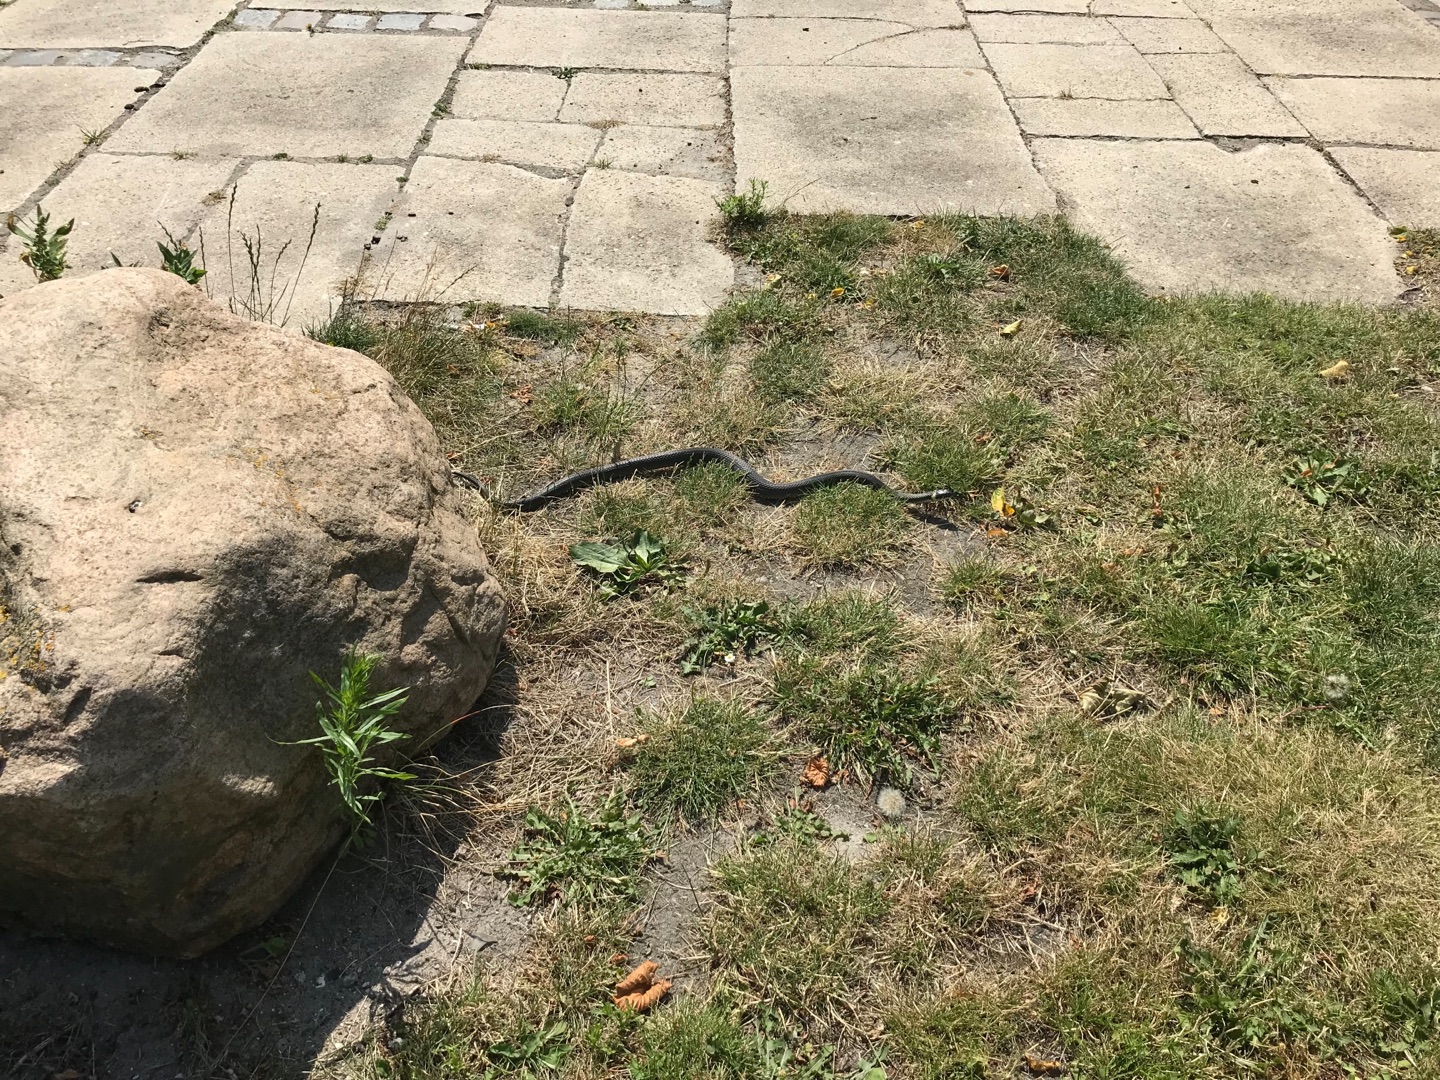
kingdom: Animalia
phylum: Chordata
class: Squamata
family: Colubridae
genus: Natrix
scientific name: Natrix natrix
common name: Snog
